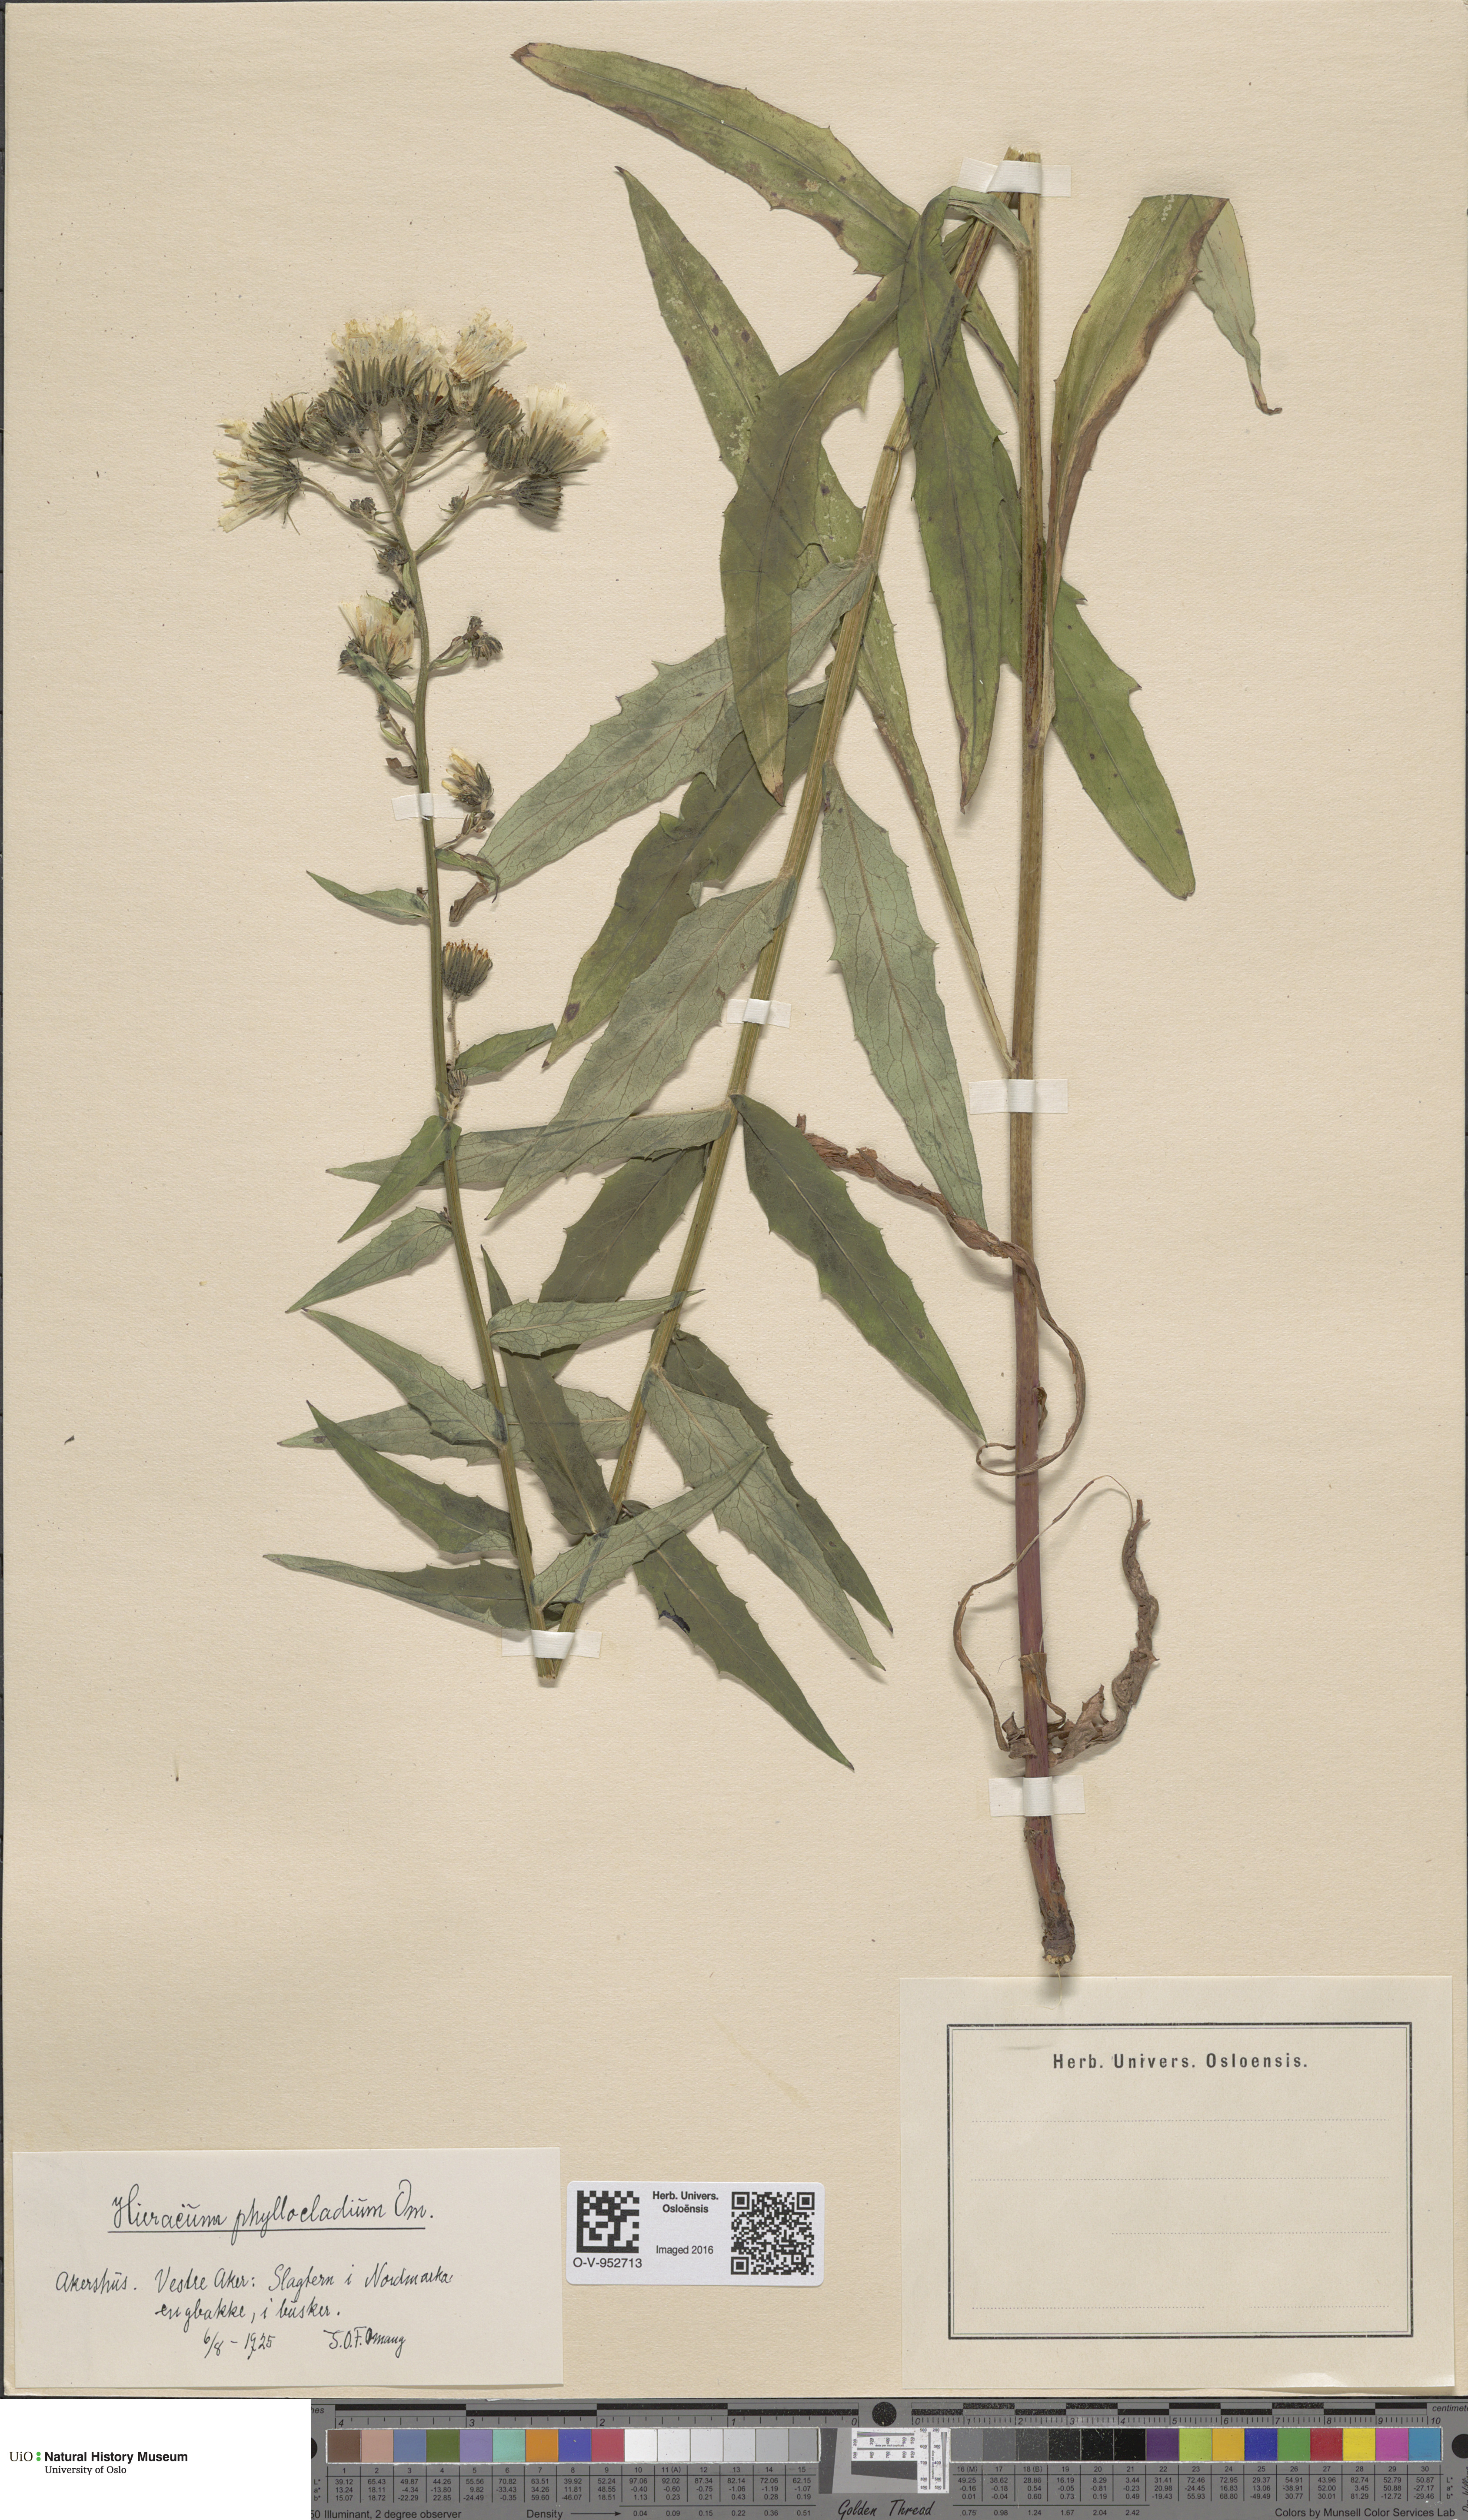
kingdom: Plantae
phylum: Tracheophyta
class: Magnoliopsida
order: Asterales
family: Asteraceae
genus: Hieracium
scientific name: Hieracium
